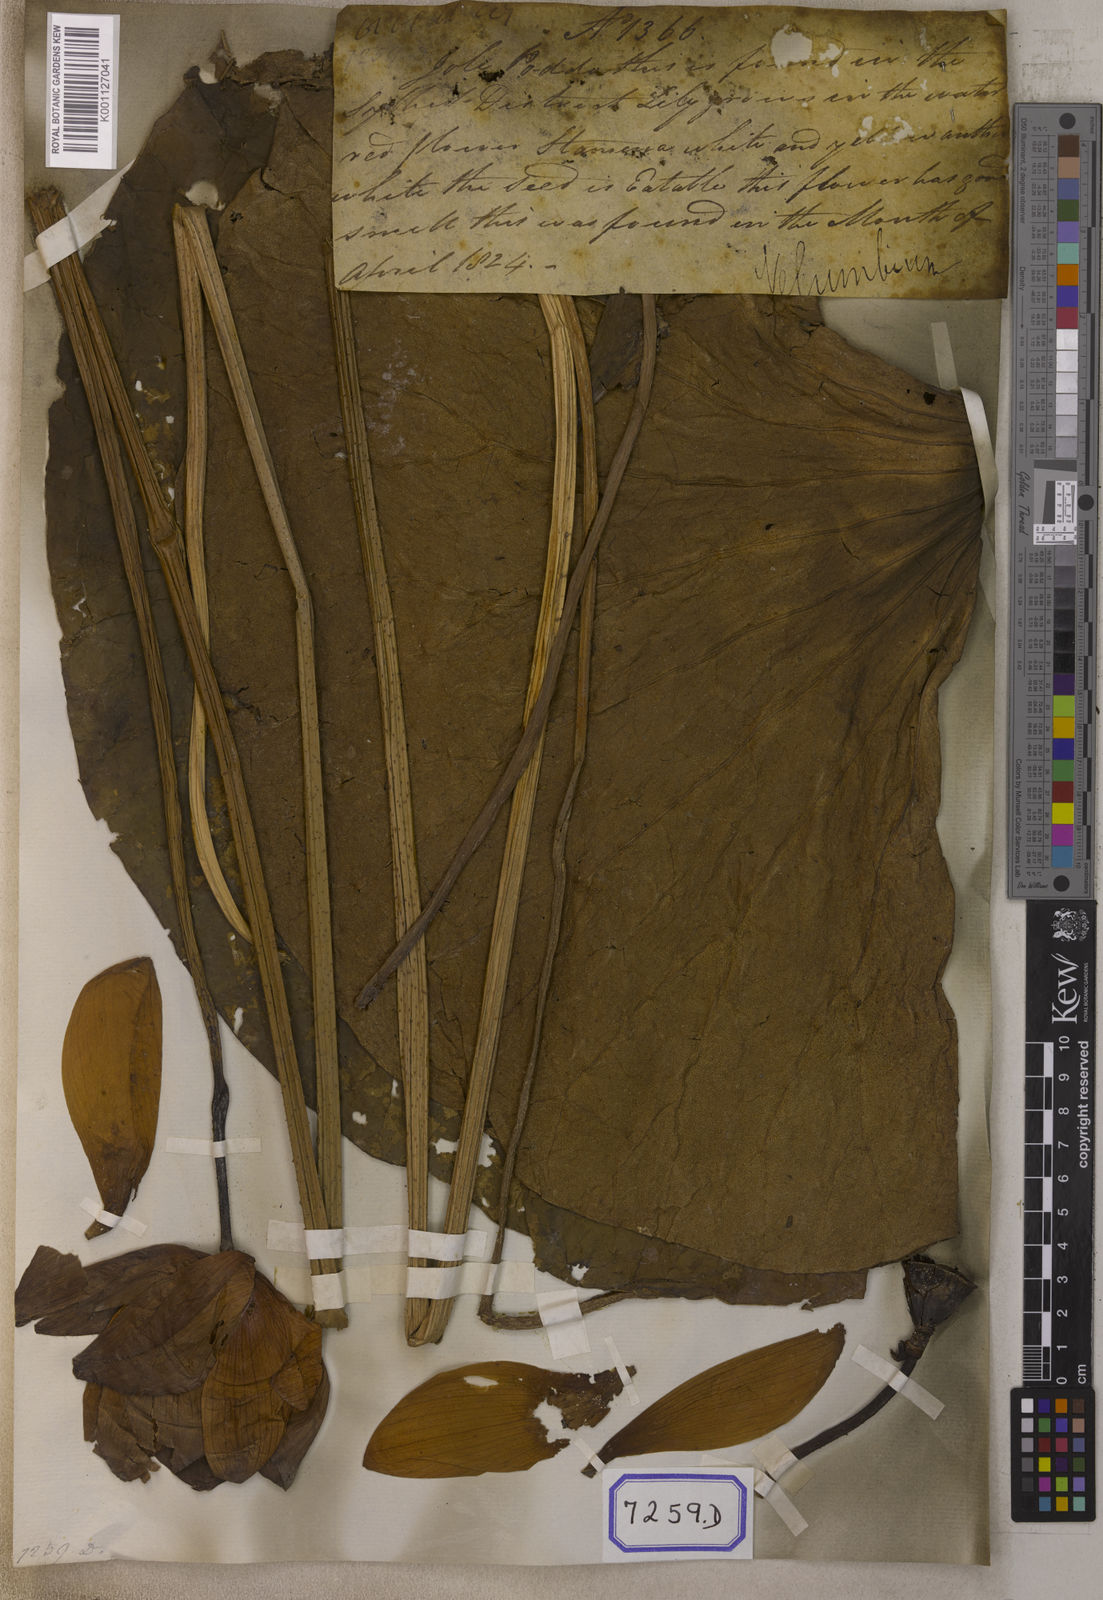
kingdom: Plantae
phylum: Tracheophyta
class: Magnoliopsida
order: Proteales
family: Nelumbonaceae
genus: Nelumbo
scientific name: Nelumbo nucifera
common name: Sacred lotus
